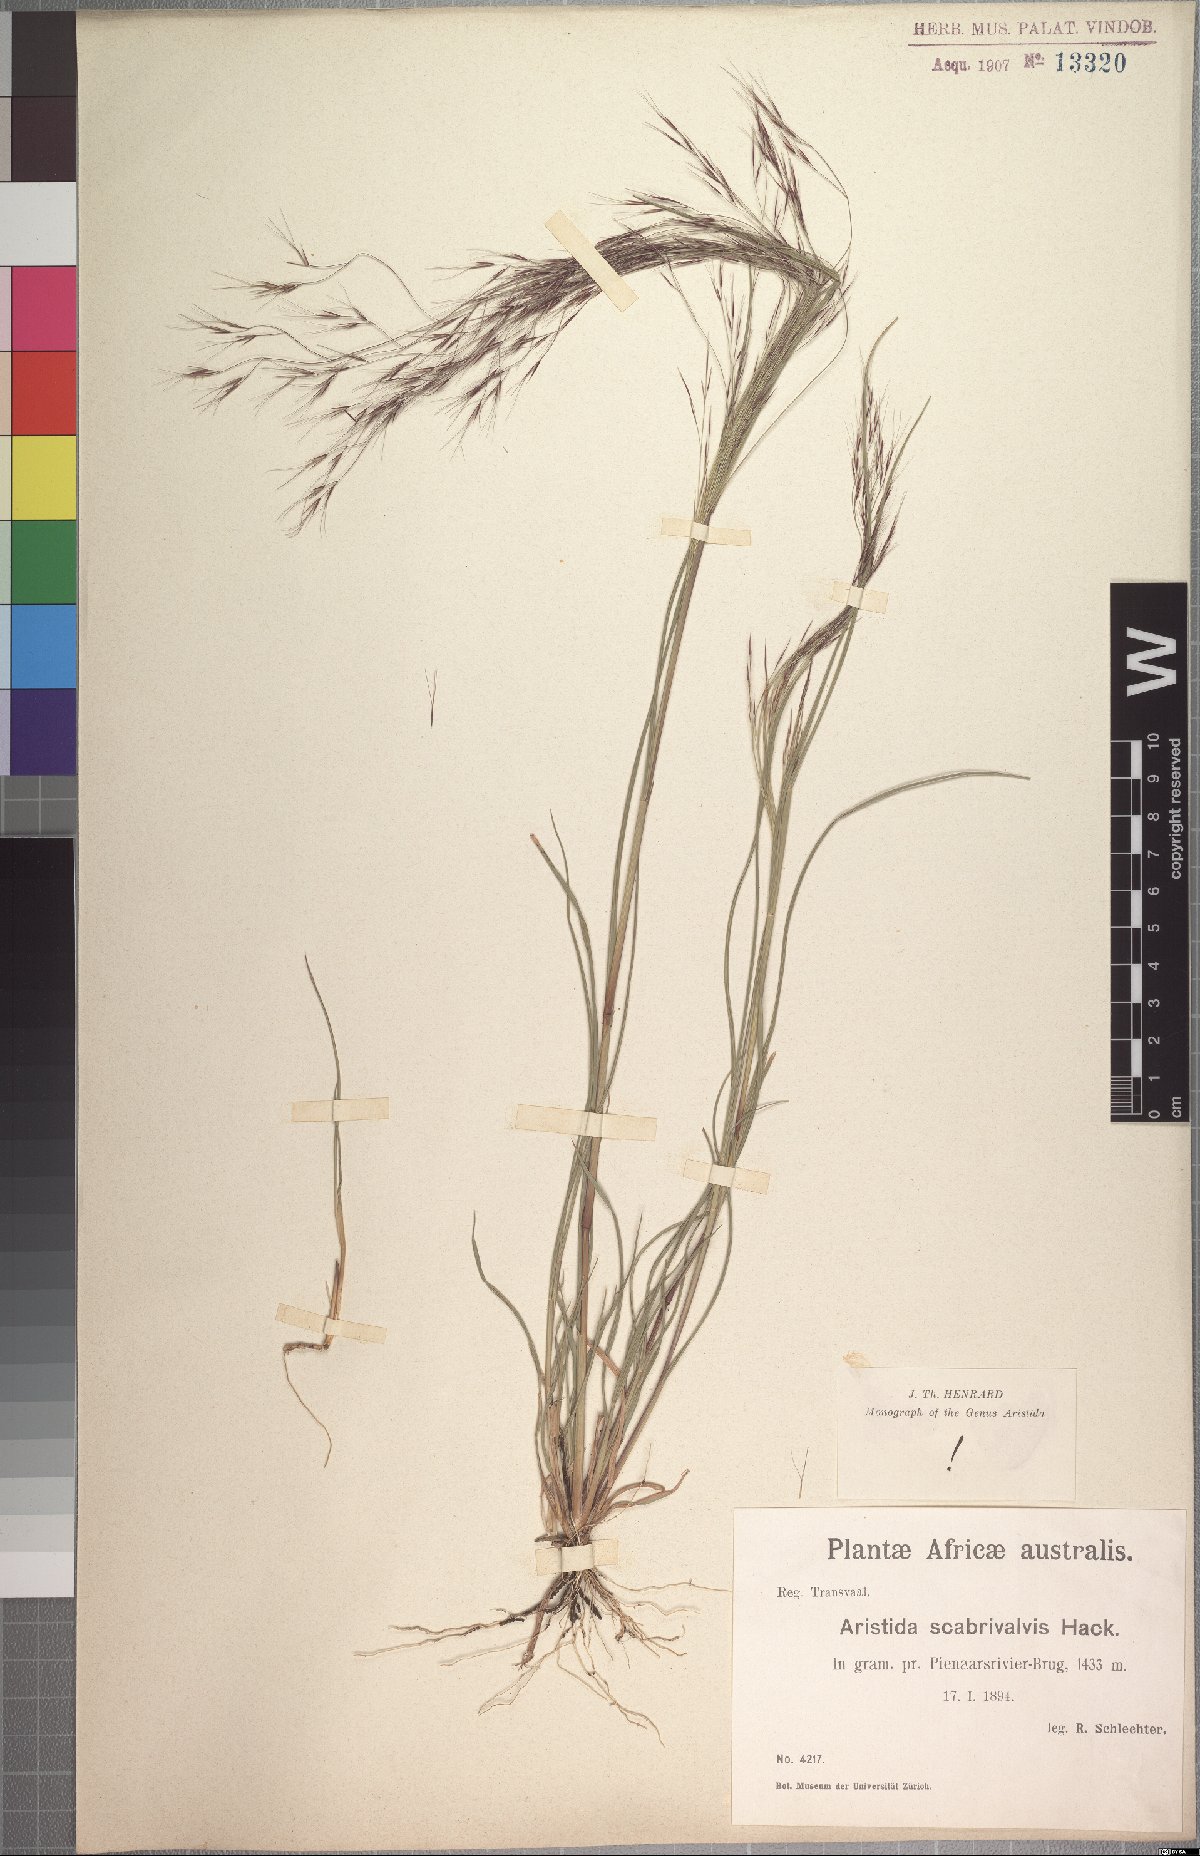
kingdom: Plantae
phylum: Tracheophyta
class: Liliopsida
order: Poales
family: Poaceae
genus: Aristida
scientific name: Aristida scabrivalvis
